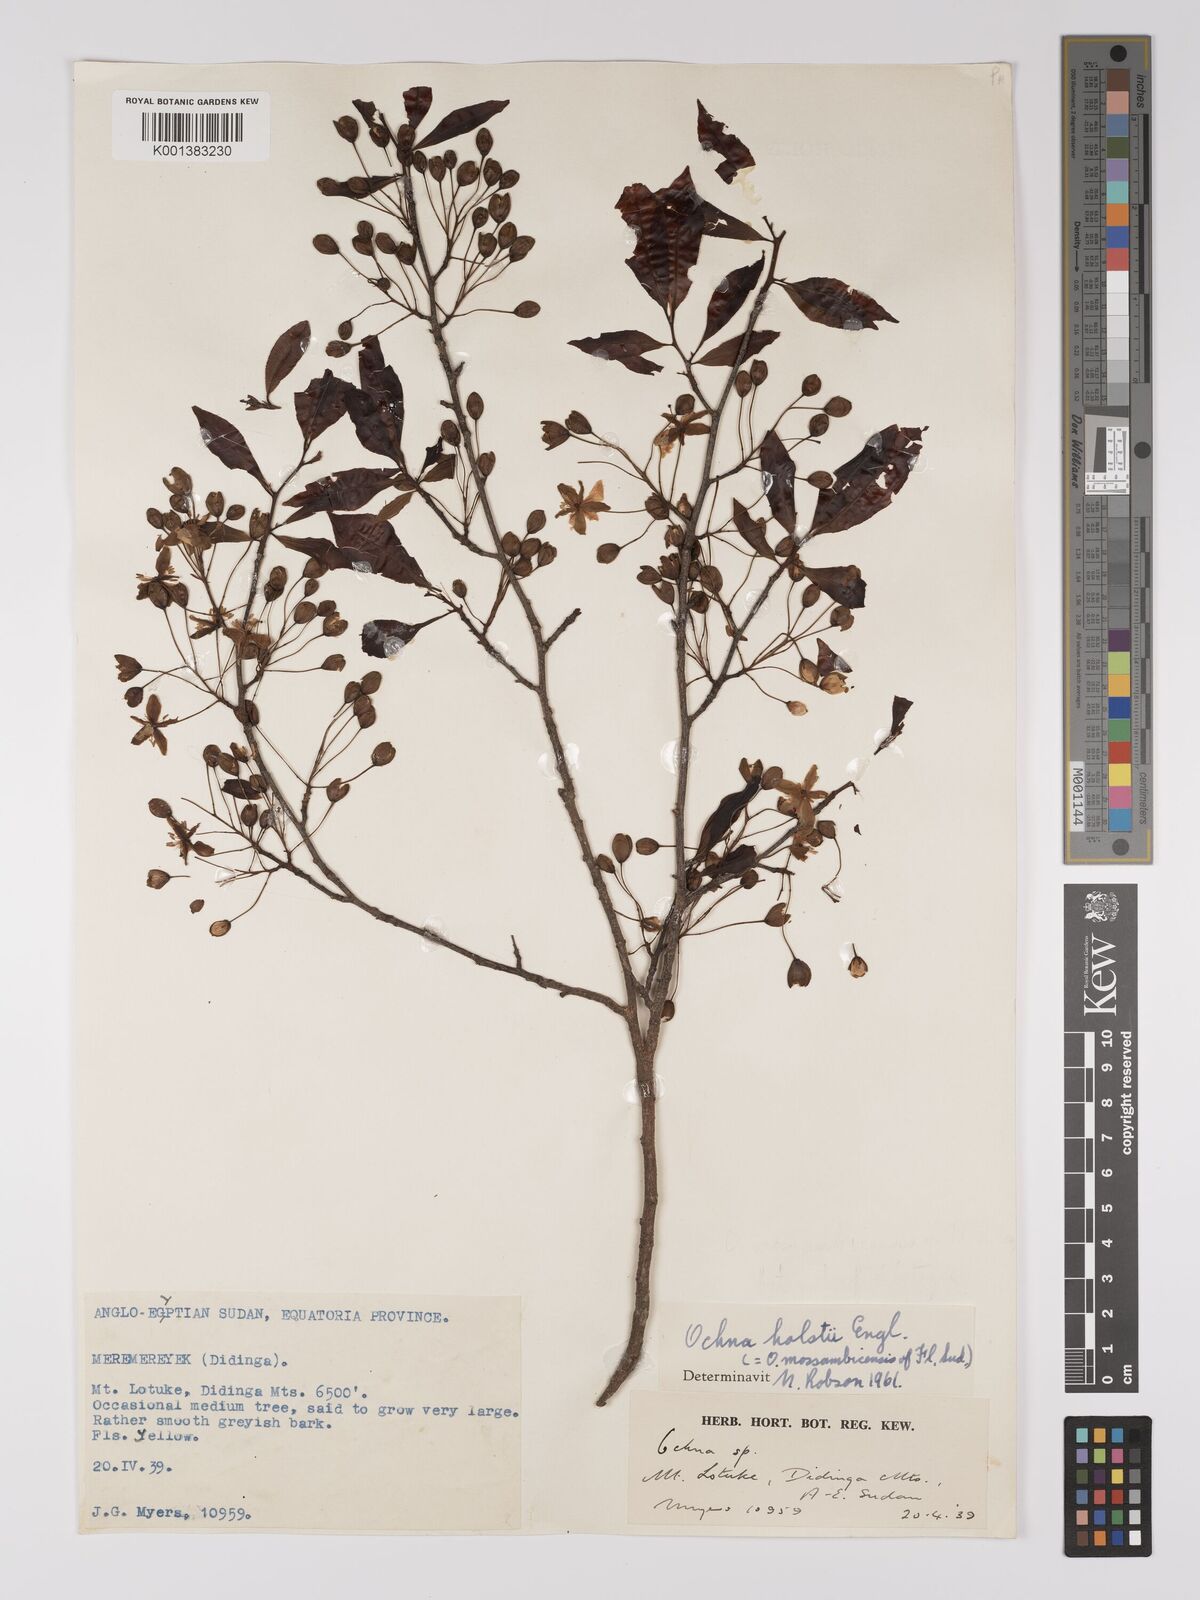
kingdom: Plantae
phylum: Tracheophyta
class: Magnoliopsida
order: Malpighiales
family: Ochnaceae
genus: Ochna
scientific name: Ochna holstii
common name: Red ironwood
